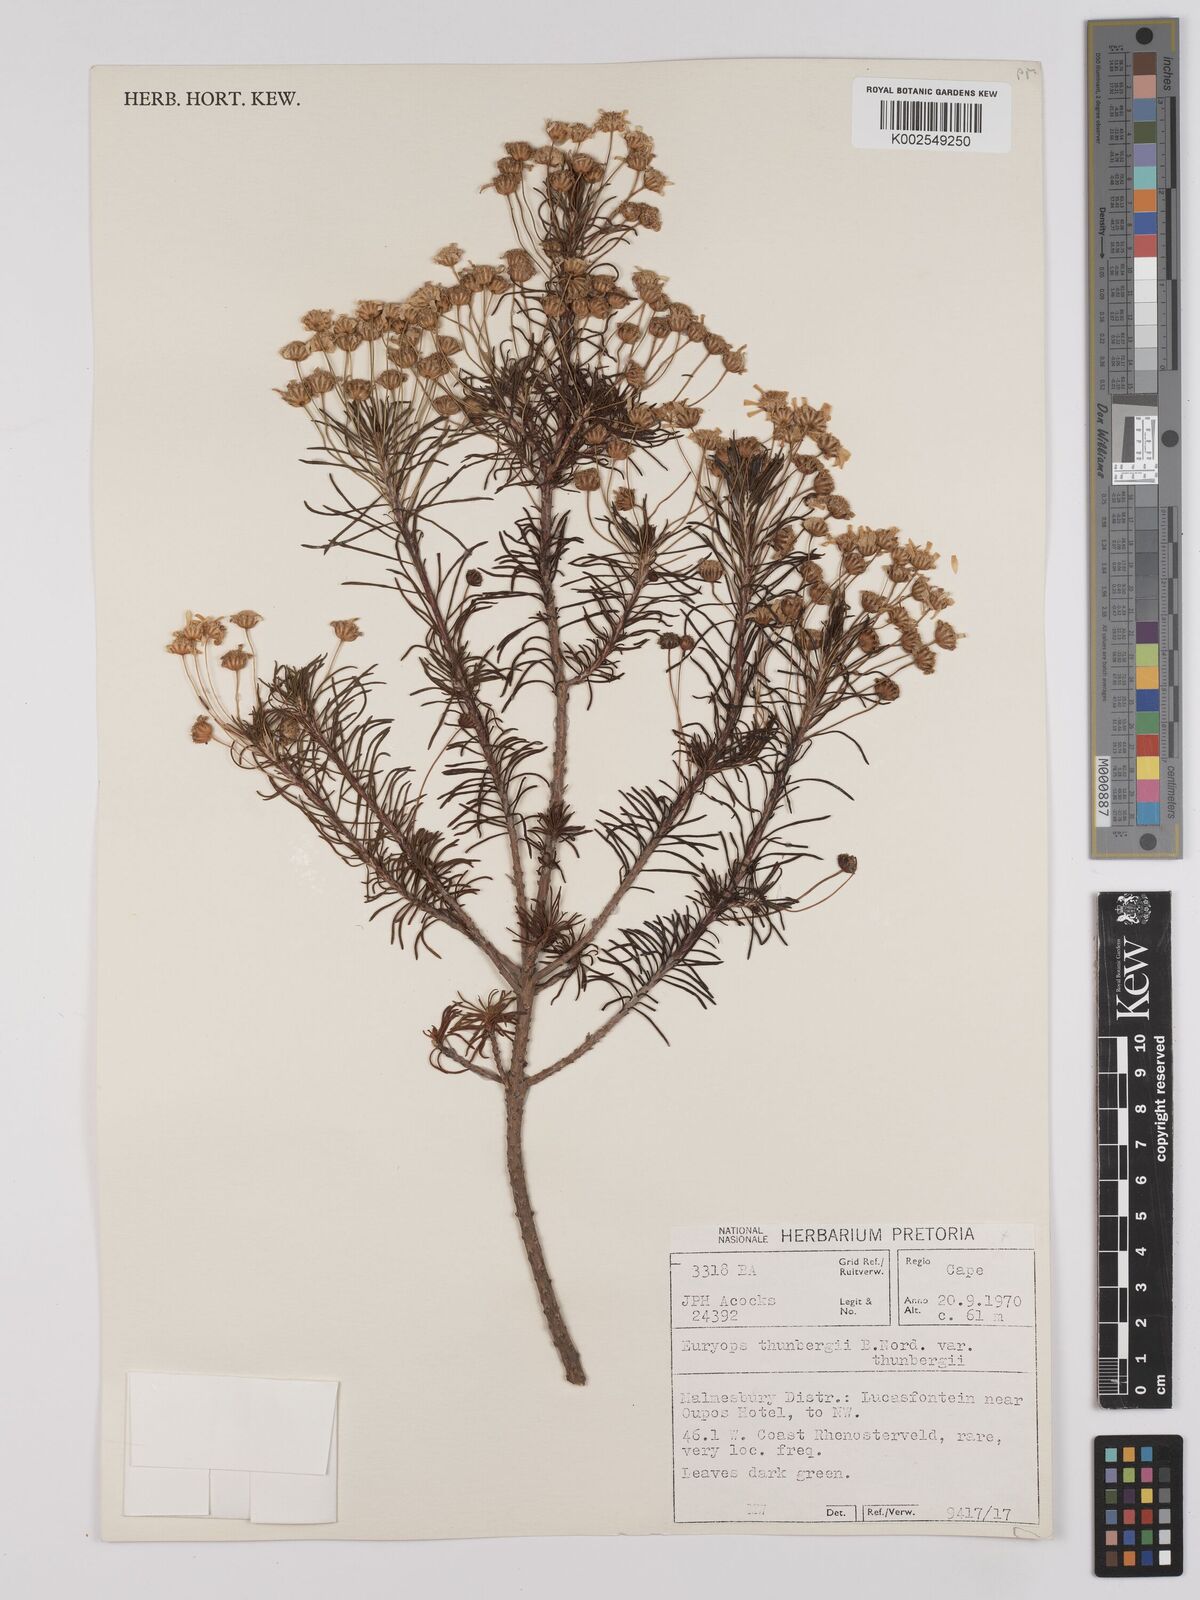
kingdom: Plantae
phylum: Tracheophyta
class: Magnoliopsida
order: Asterales
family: Asteraceae
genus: Euryops
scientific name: Euryops thunbergii
